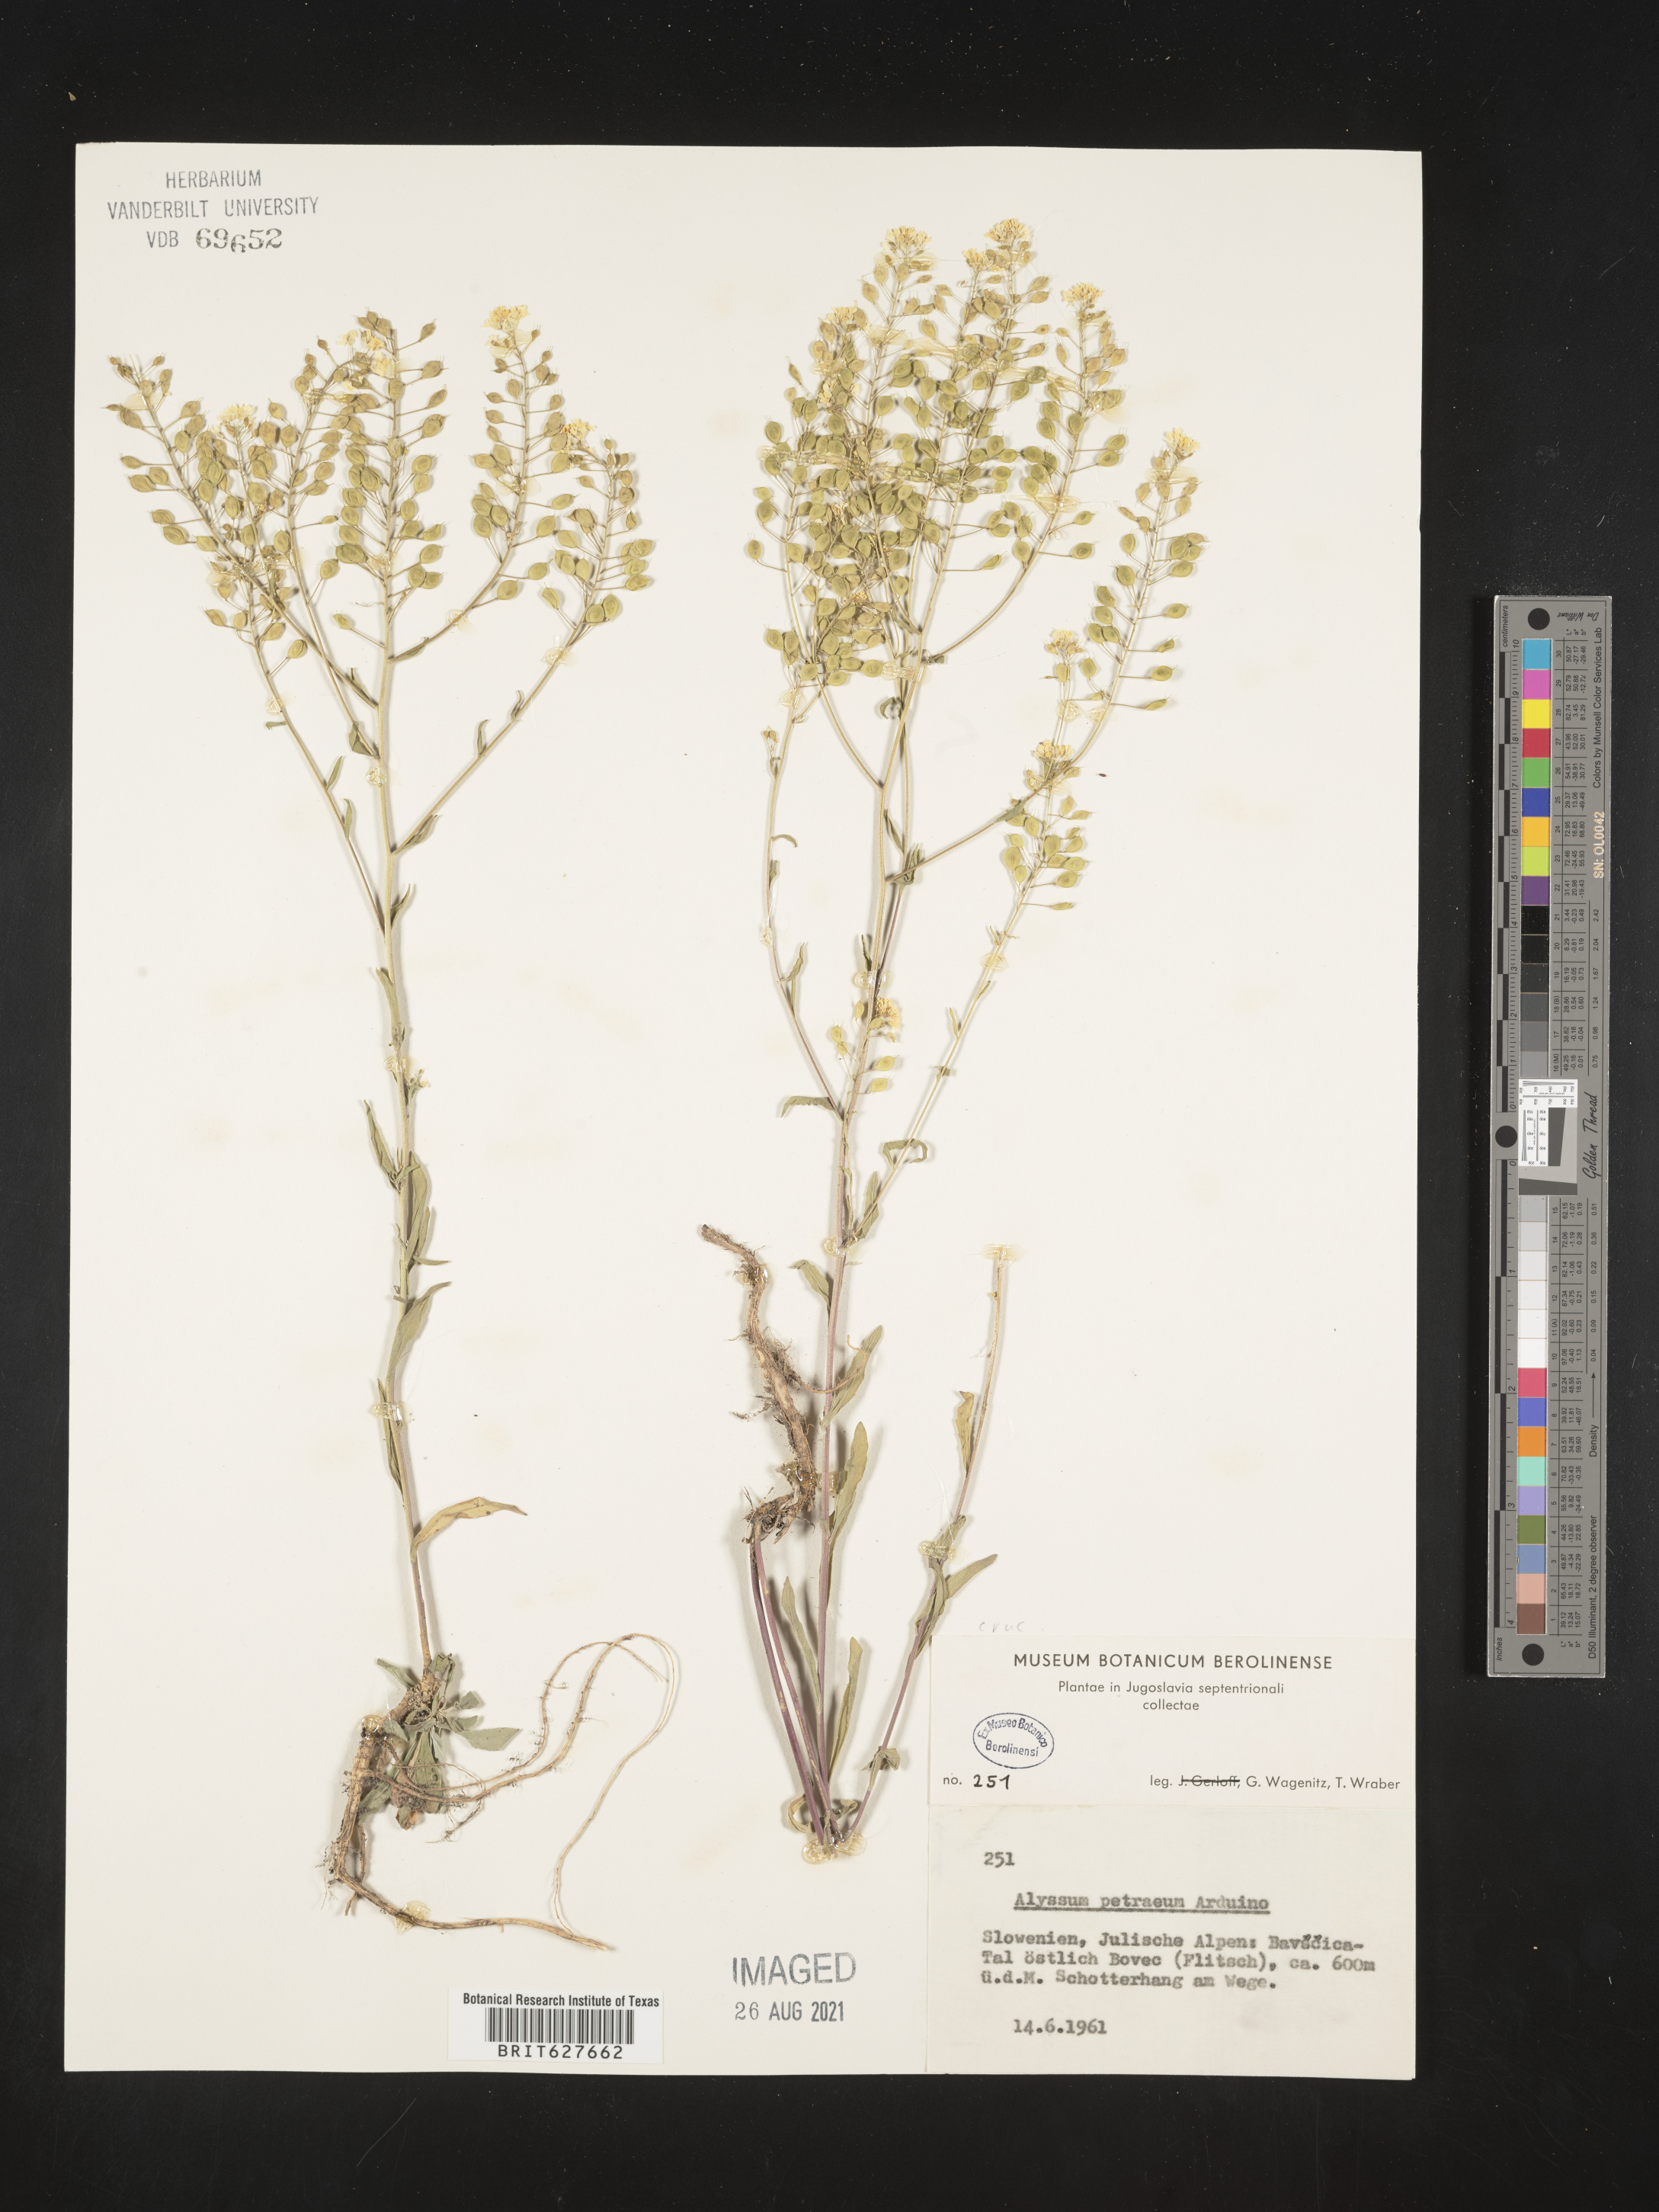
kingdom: Plantae
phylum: Tracheophyta
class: Magnoliopsida
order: Brassicales
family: Brassicaceae
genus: Aurinia
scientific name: Aurinia petraea
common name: Goldentuft
